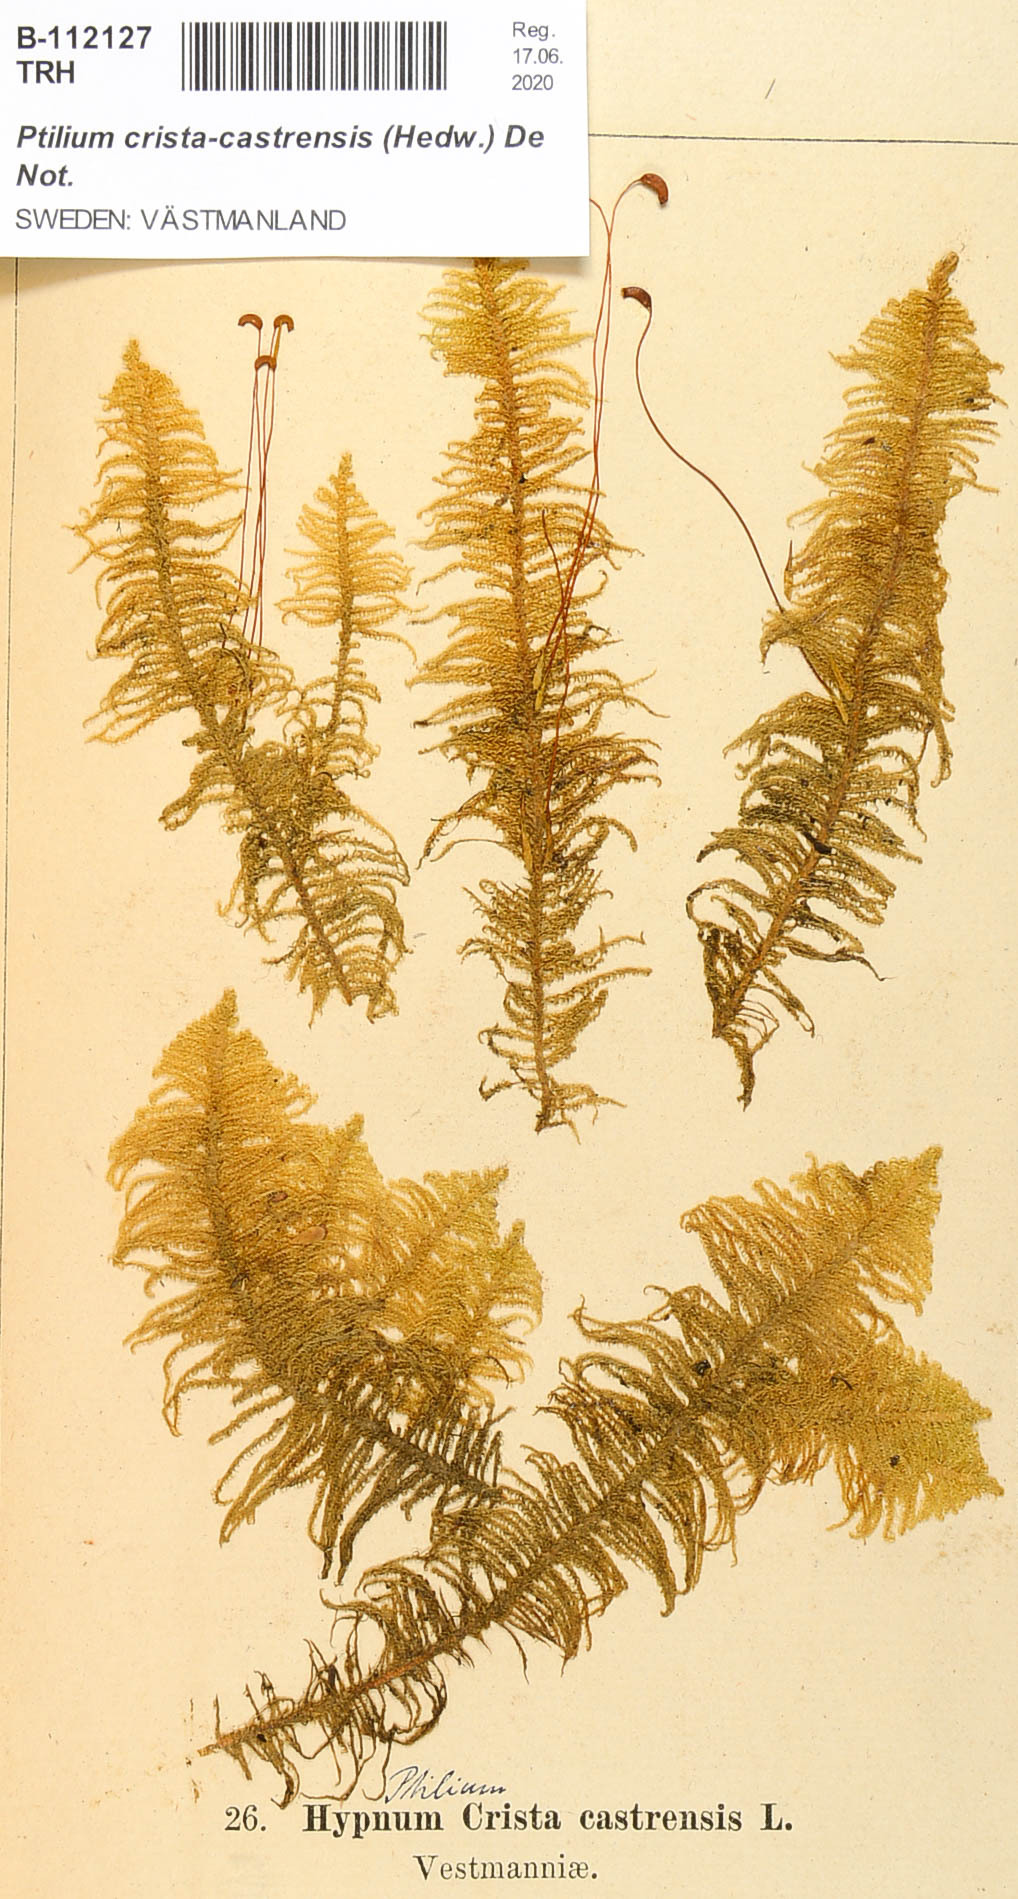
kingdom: Plantae
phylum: Bryophyta
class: Bryopsida
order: Hypnales
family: Pylaisiaceae
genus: Ptilium
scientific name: Ptilium crista-castrensis
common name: Knight's plume moss
